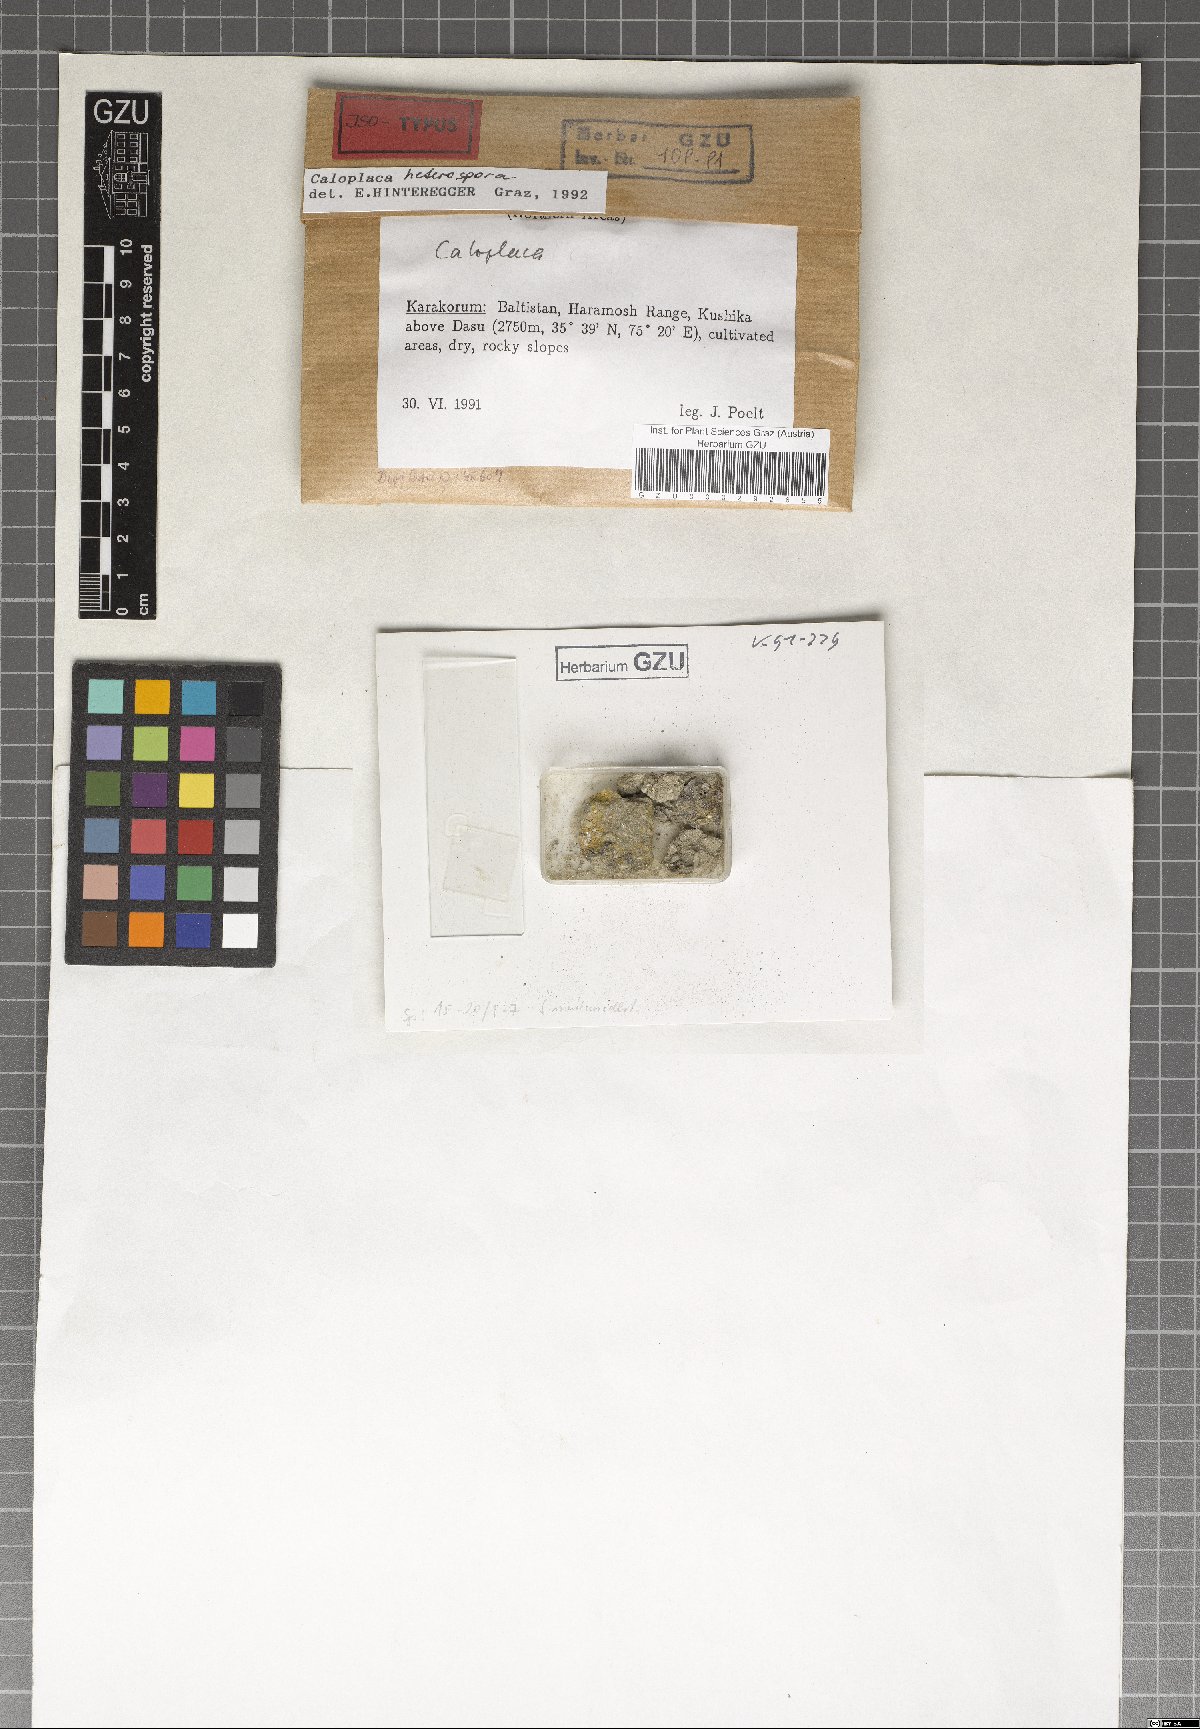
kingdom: Fungi
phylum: Ascomycota
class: Lecanoromycetes
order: Teloschistales
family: Teloschistaceae
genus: Caloplaca
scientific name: Caloplaca
